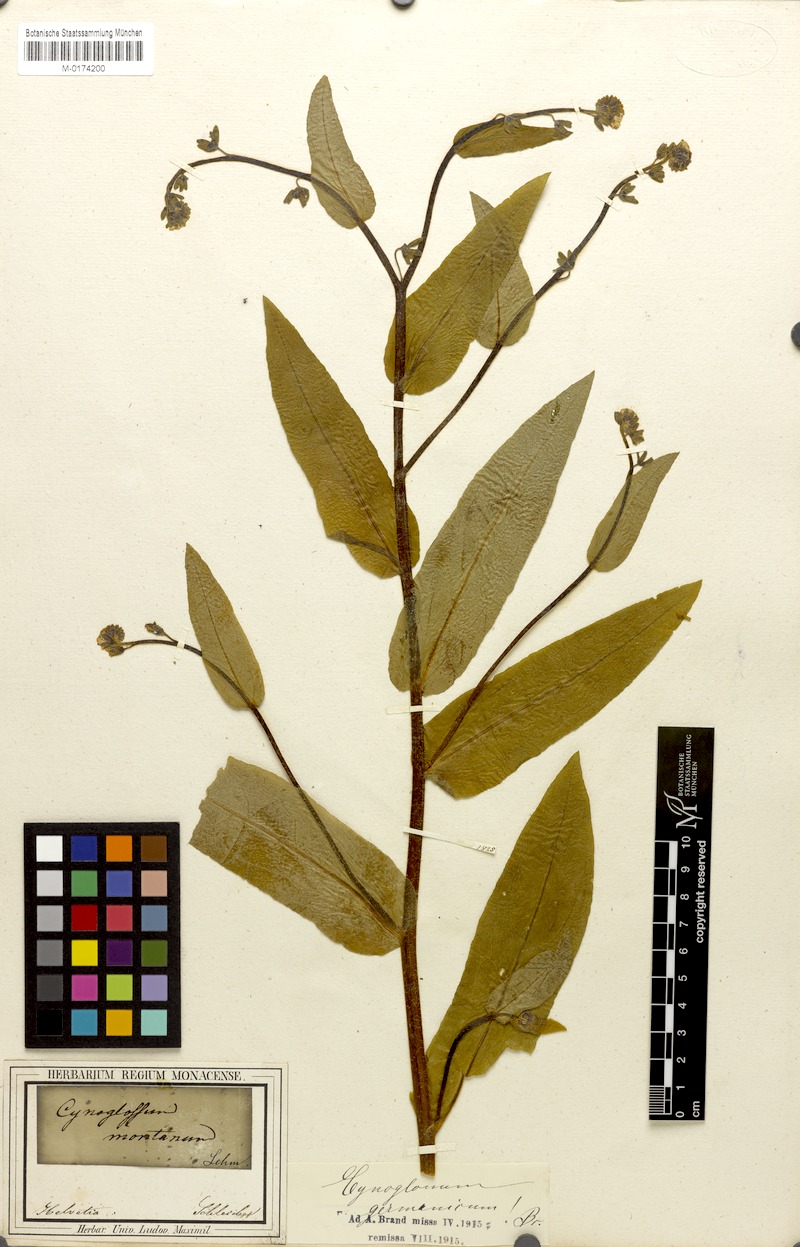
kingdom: Plantae
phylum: Tracheophyta
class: Magnoliopsida
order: Boraginales
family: Boraginaceae
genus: Cynoglossum
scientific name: Cynoglossum germanicum
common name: Green hound's-tongue
